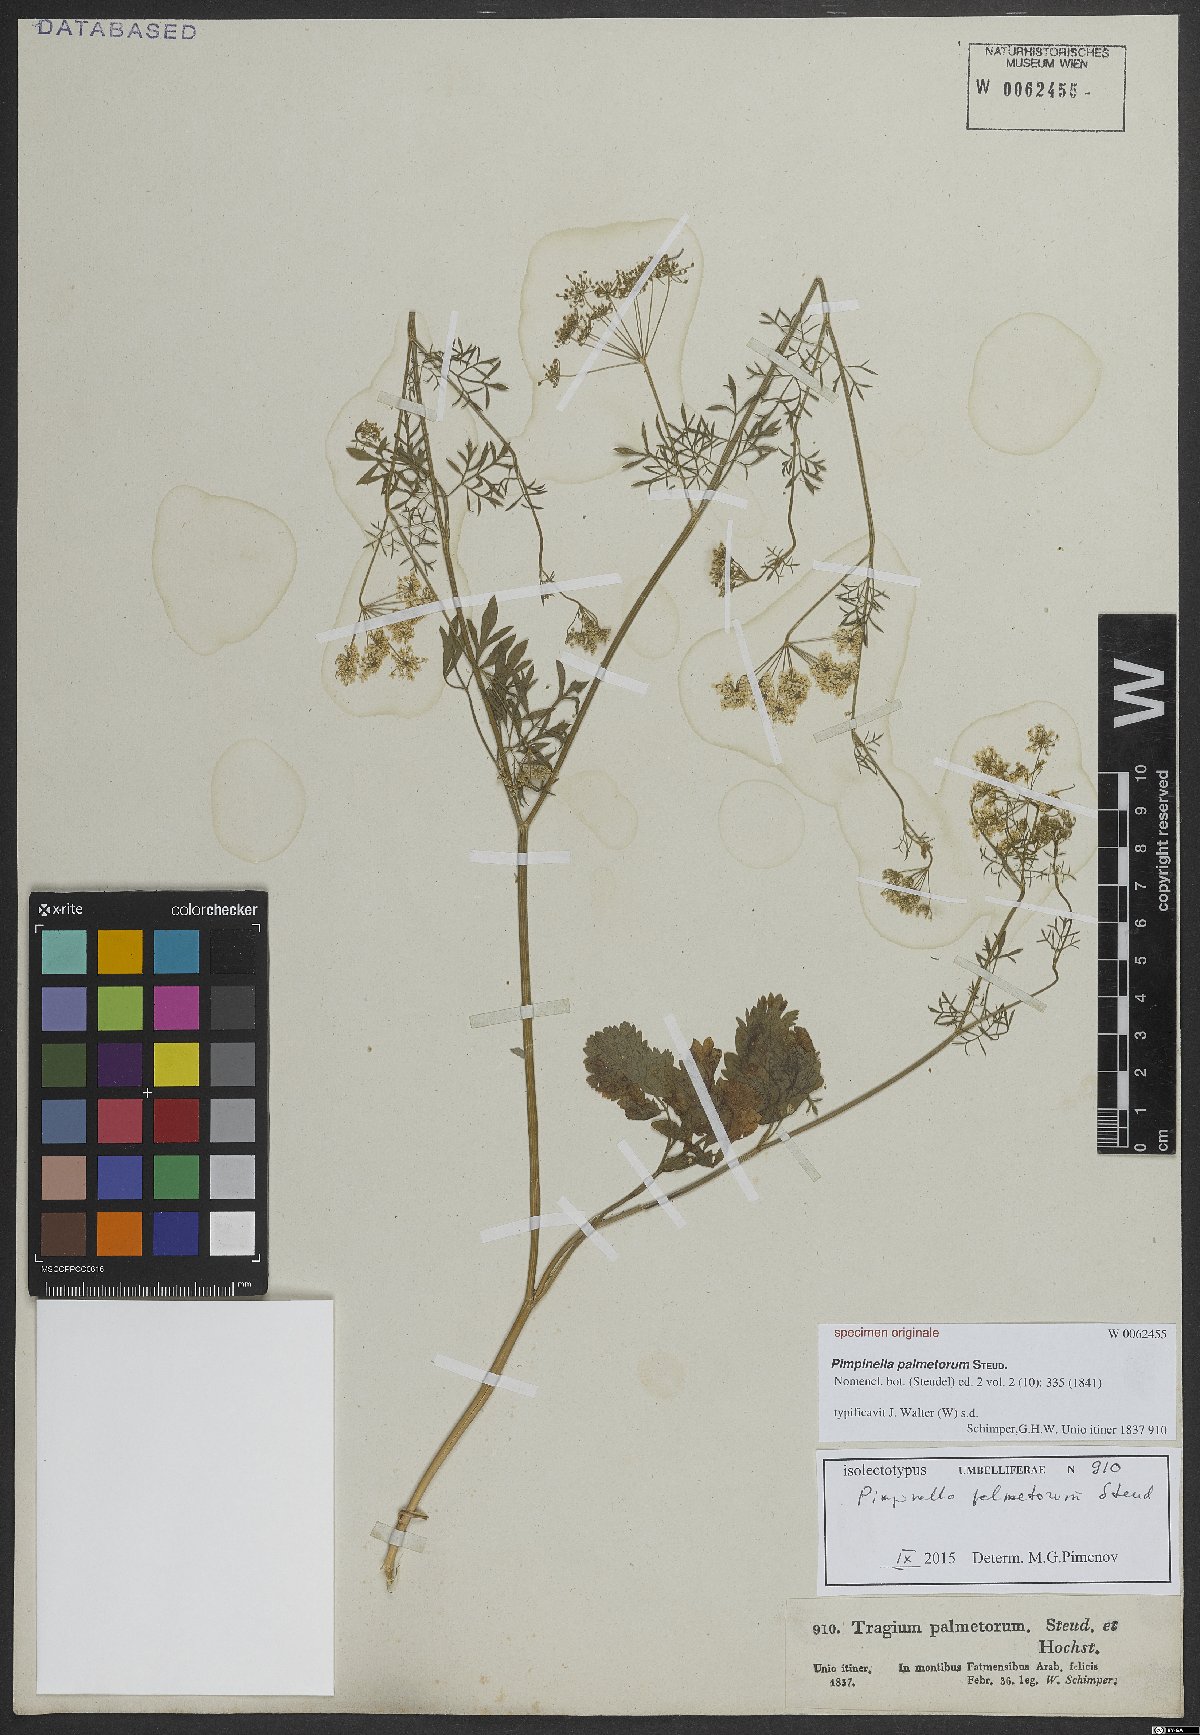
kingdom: Plantae
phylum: Tracheophyta
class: Magnoliopsida
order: Apiales
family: Apiaceae
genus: Pimpinella
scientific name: Pimpinella anisum
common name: Anise burnet saxifrage
